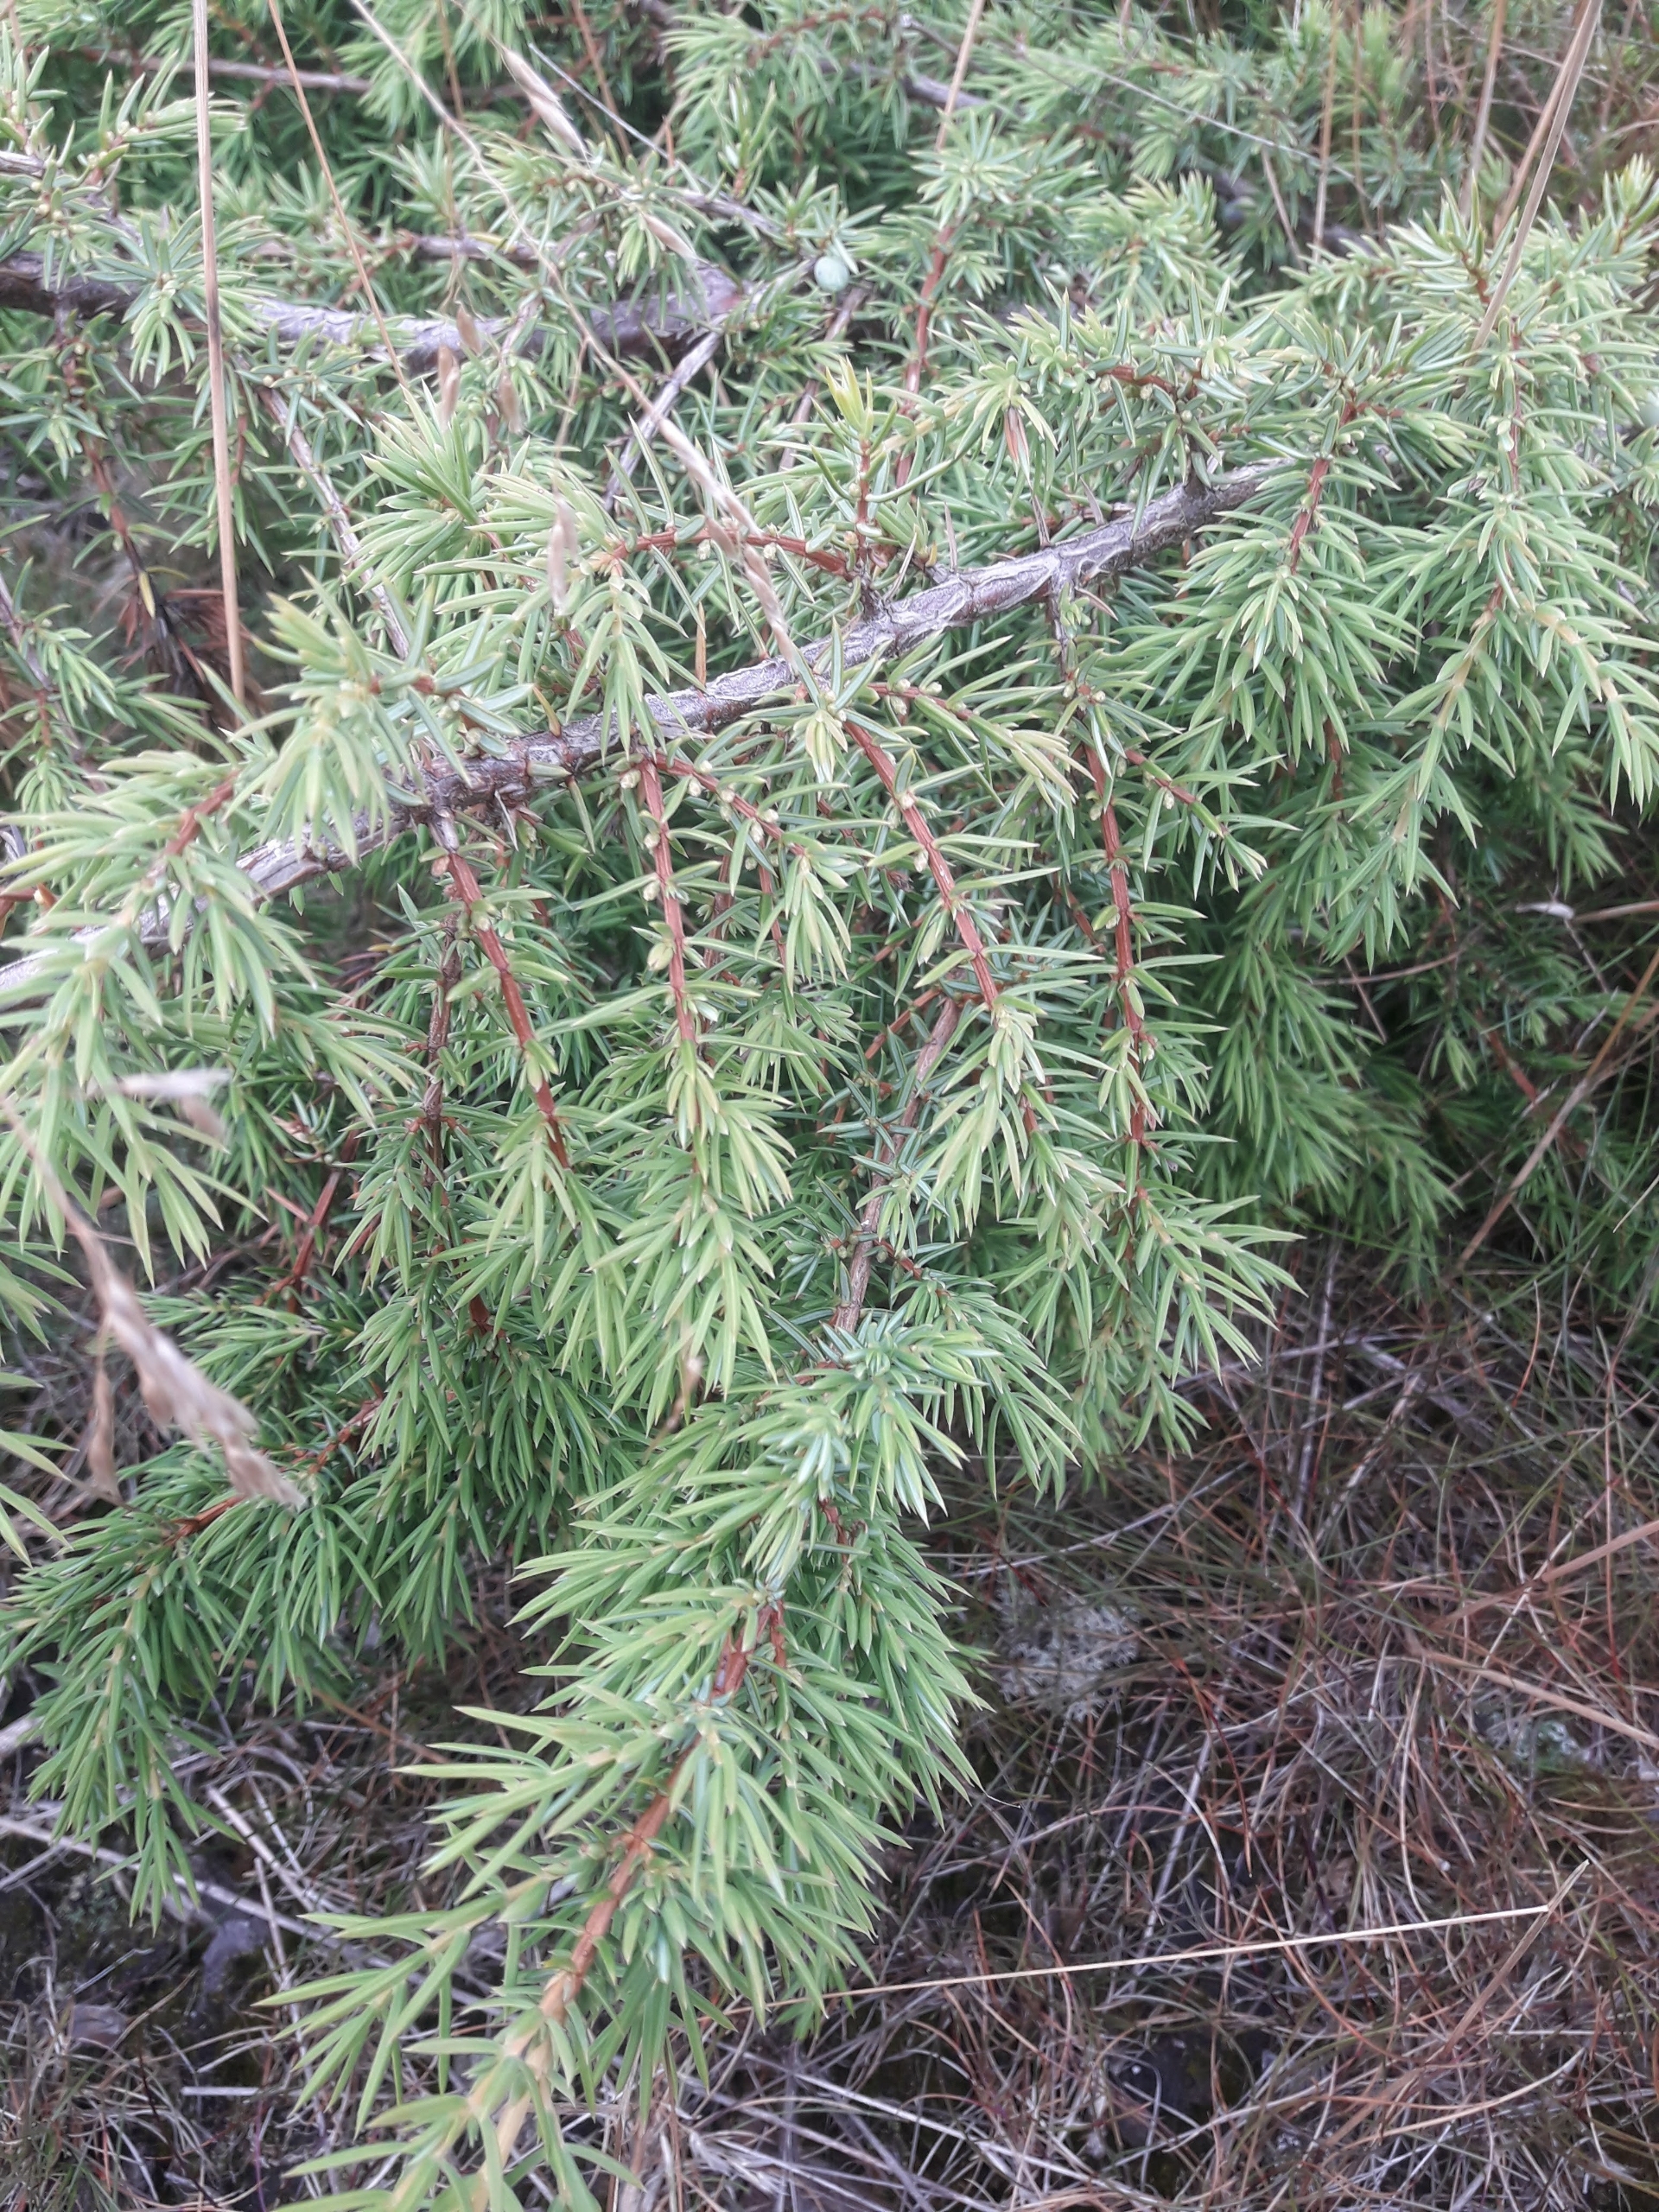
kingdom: Plantae
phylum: Tracheophyta
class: Pinopsida
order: Pinales
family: Cupressaceae
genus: Juniperus
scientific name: Juniperus communis
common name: Almindelig ene
